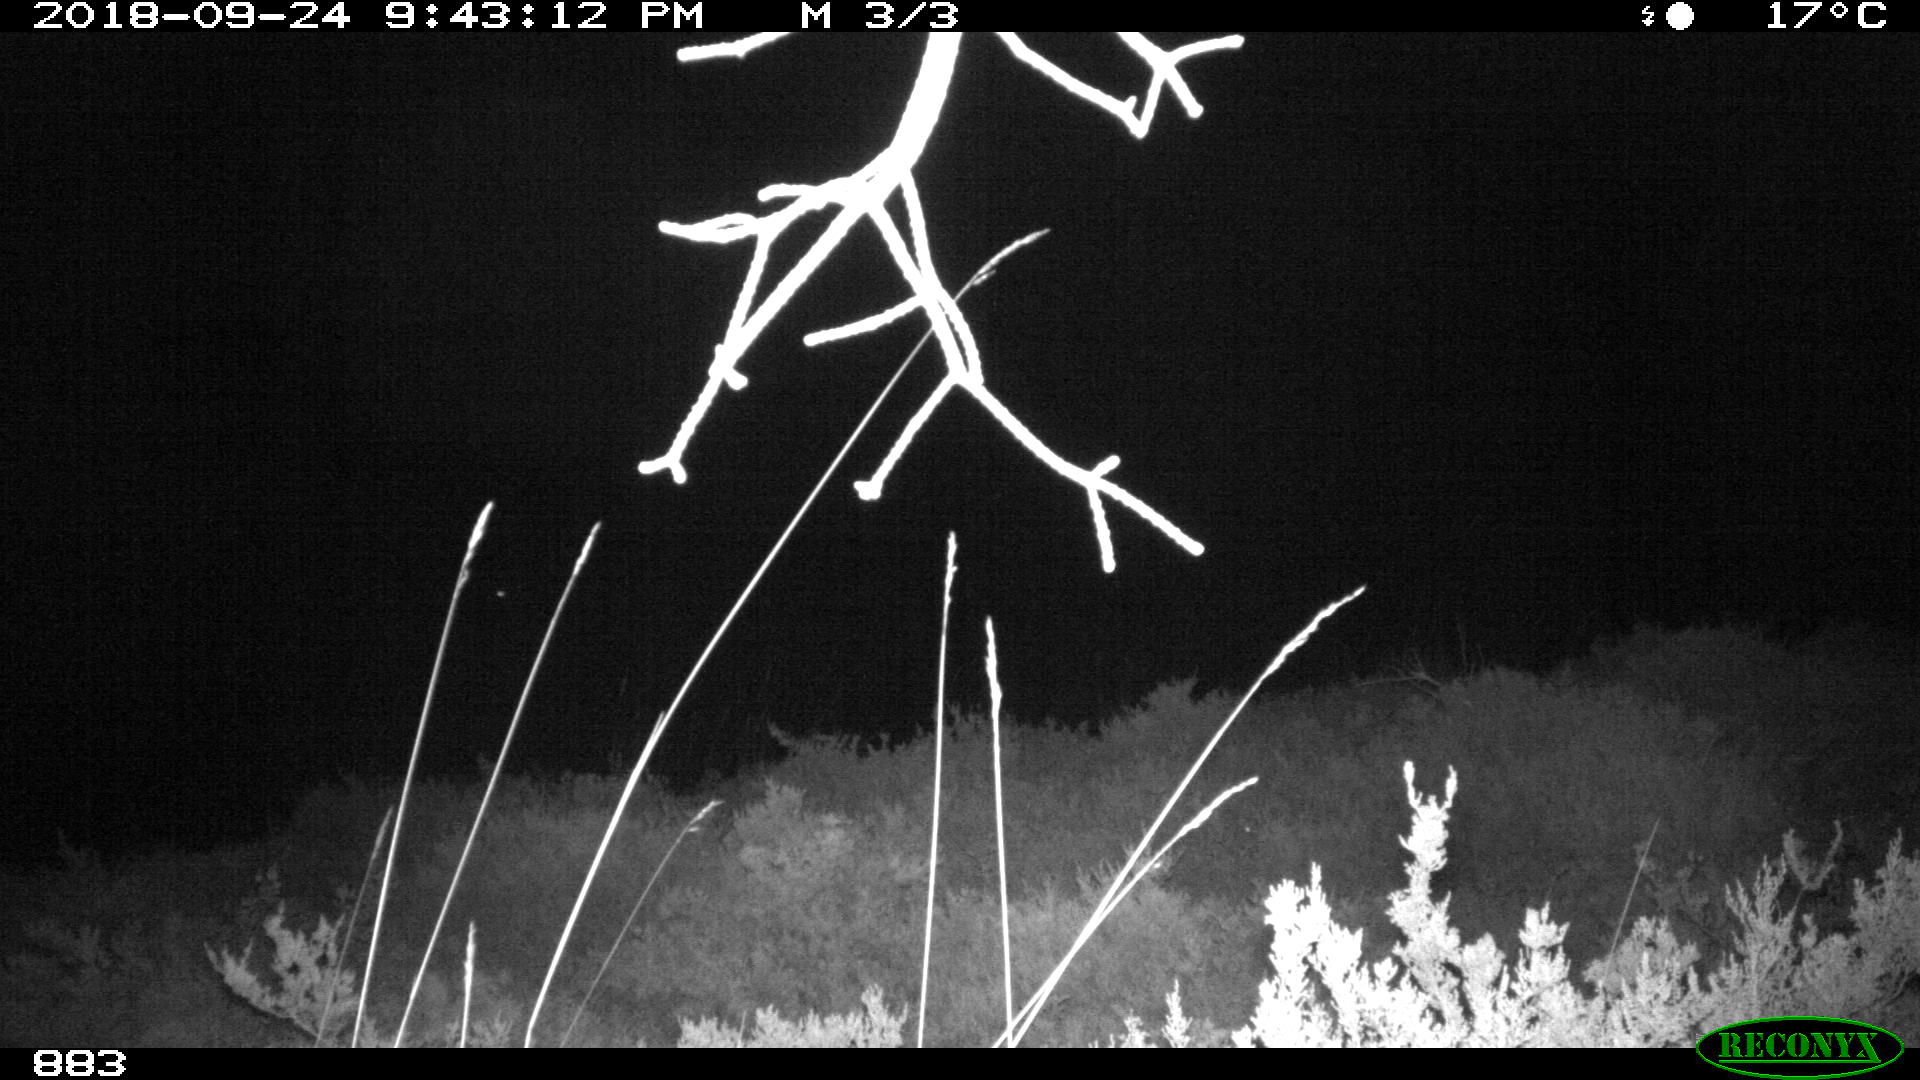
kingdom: Animalia
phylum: Chordata
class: Mammalia
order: Perissodactyla
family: Equidae
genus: Equus
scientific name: Equus caballus
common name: Horse
